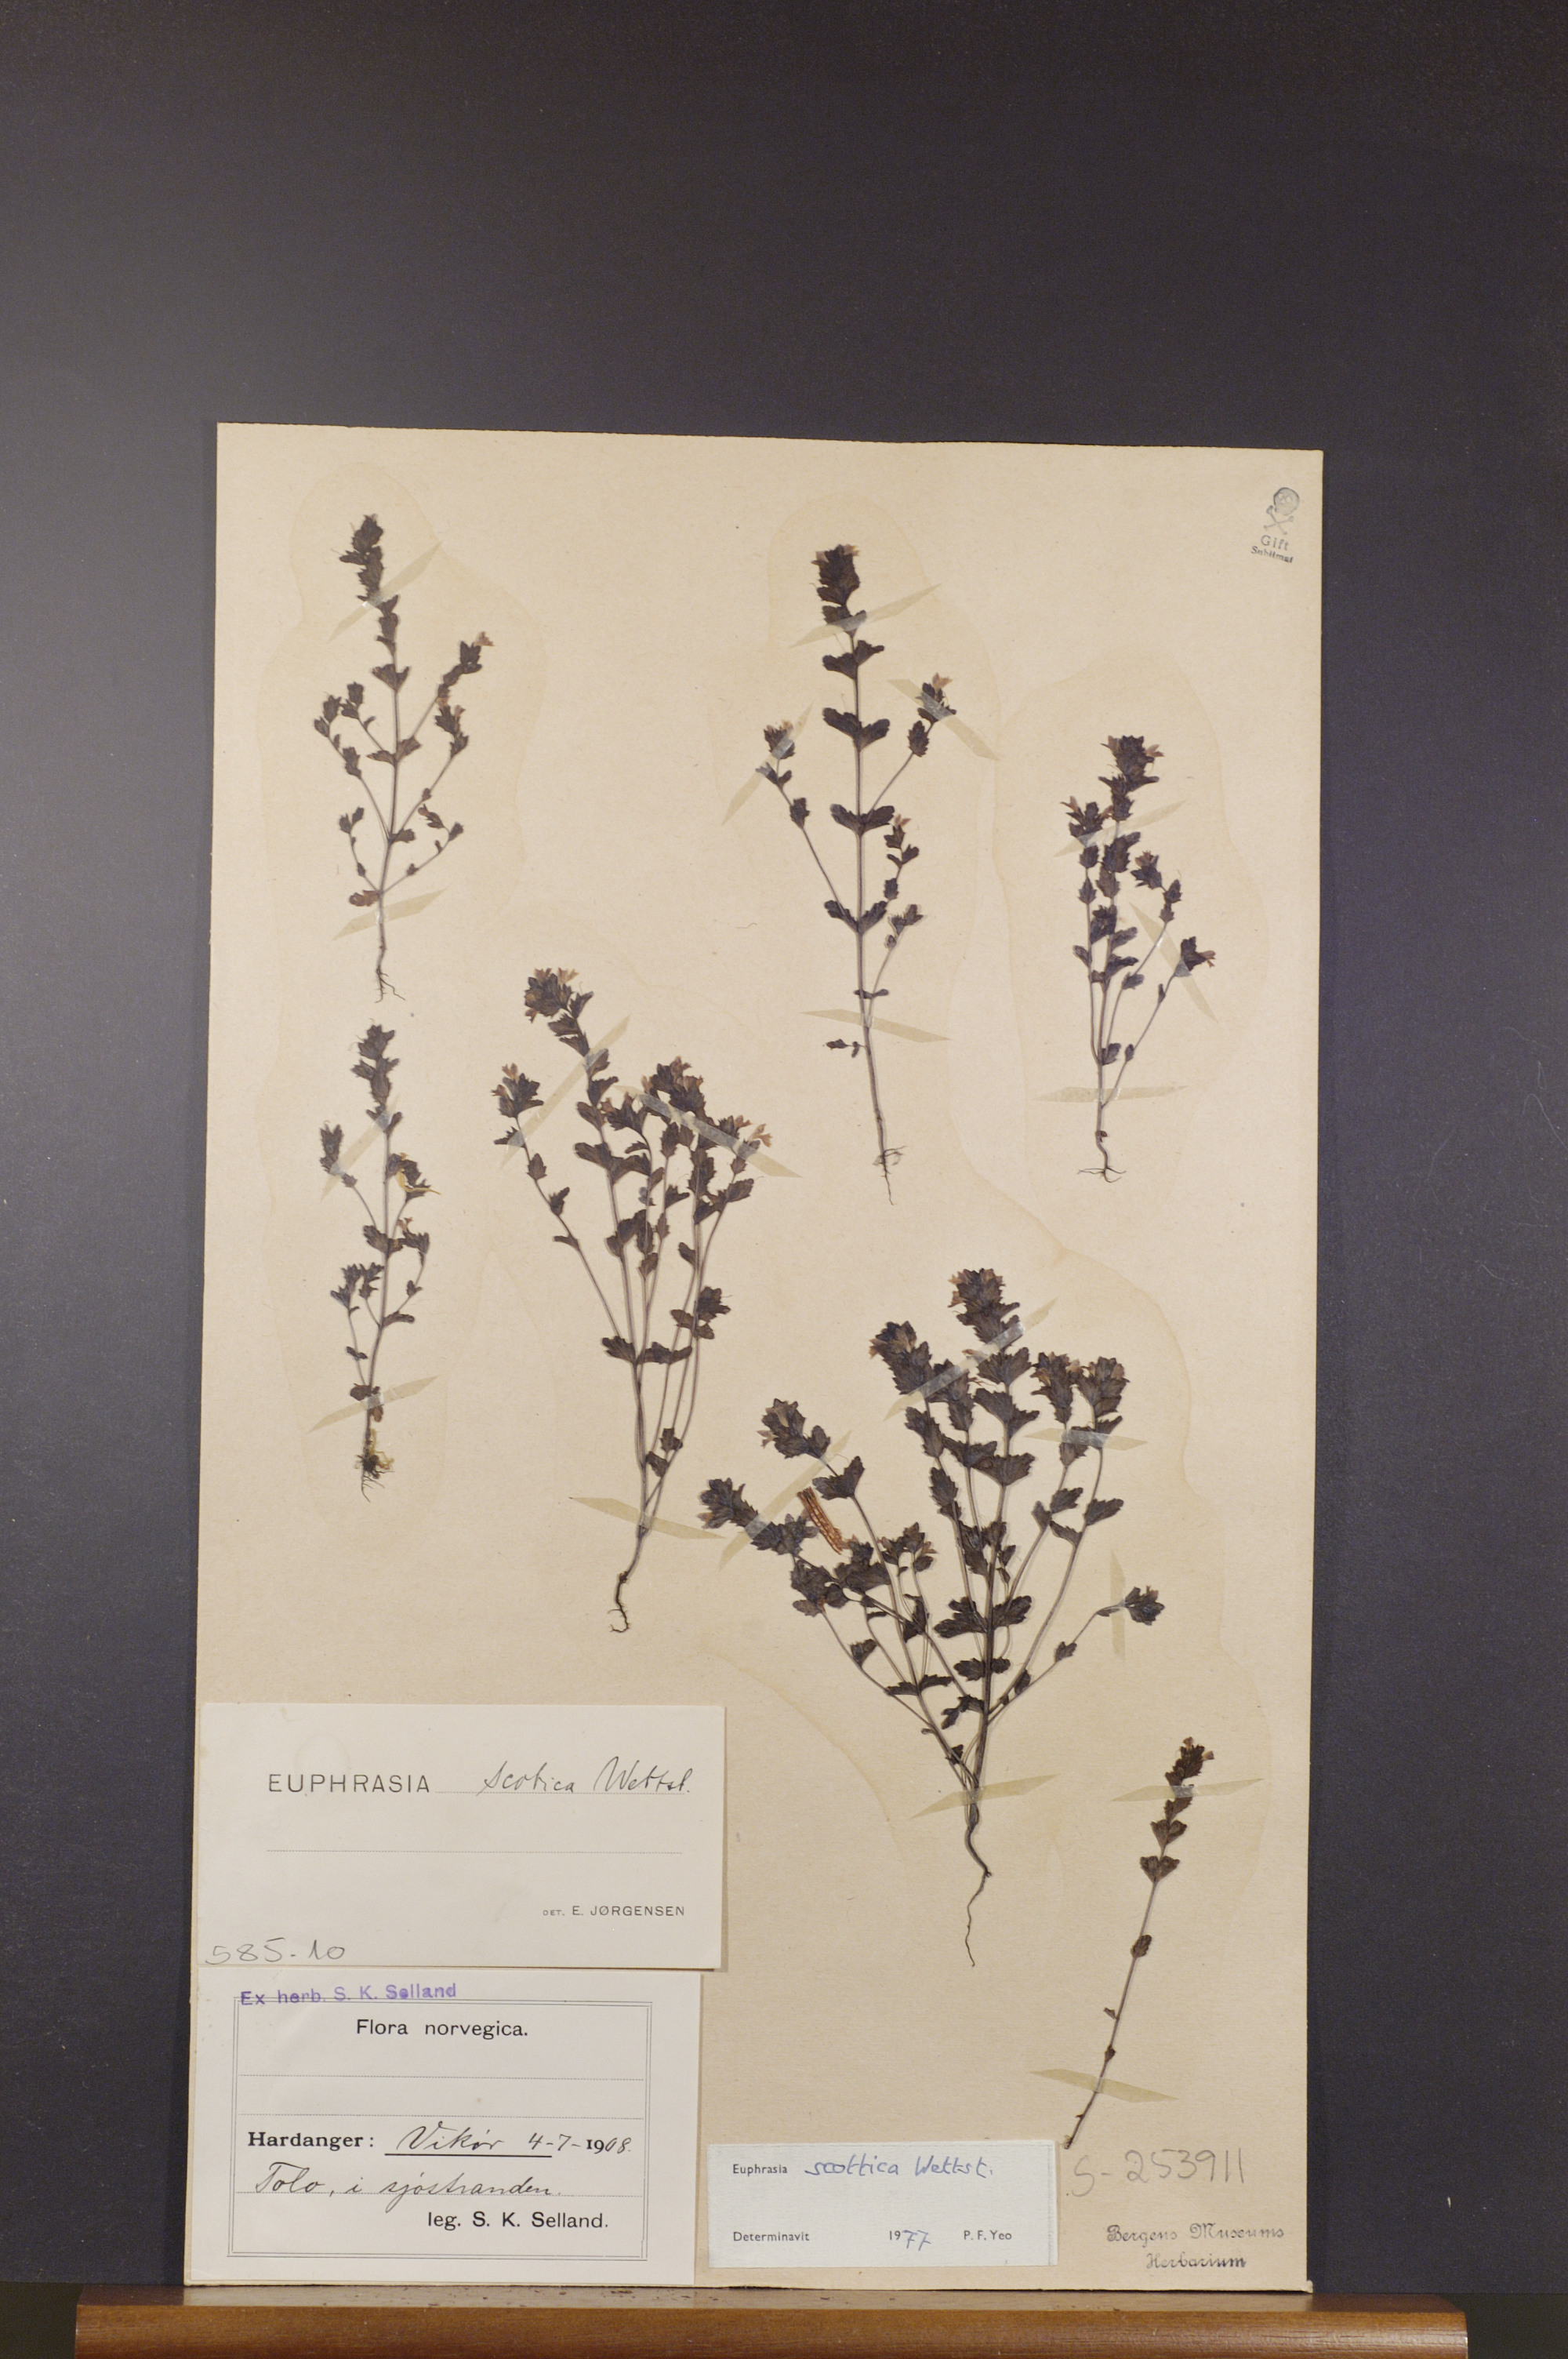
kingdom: Plantae
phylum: Tracheophyta
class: Magnoliopsida
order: Lamiales
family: Orobanchaceae
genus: Euphrasia
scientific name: Euphrasia scottica
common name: Slender scottish eyebright
